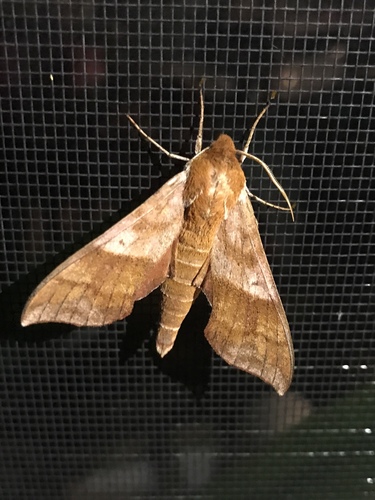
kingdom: Animalia
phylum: Arthropoda
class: Insecta
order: Lepidoptera
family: Sphingidae
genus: Darapsa
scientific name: Darapsa choerilus
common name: Azalea sphinx
